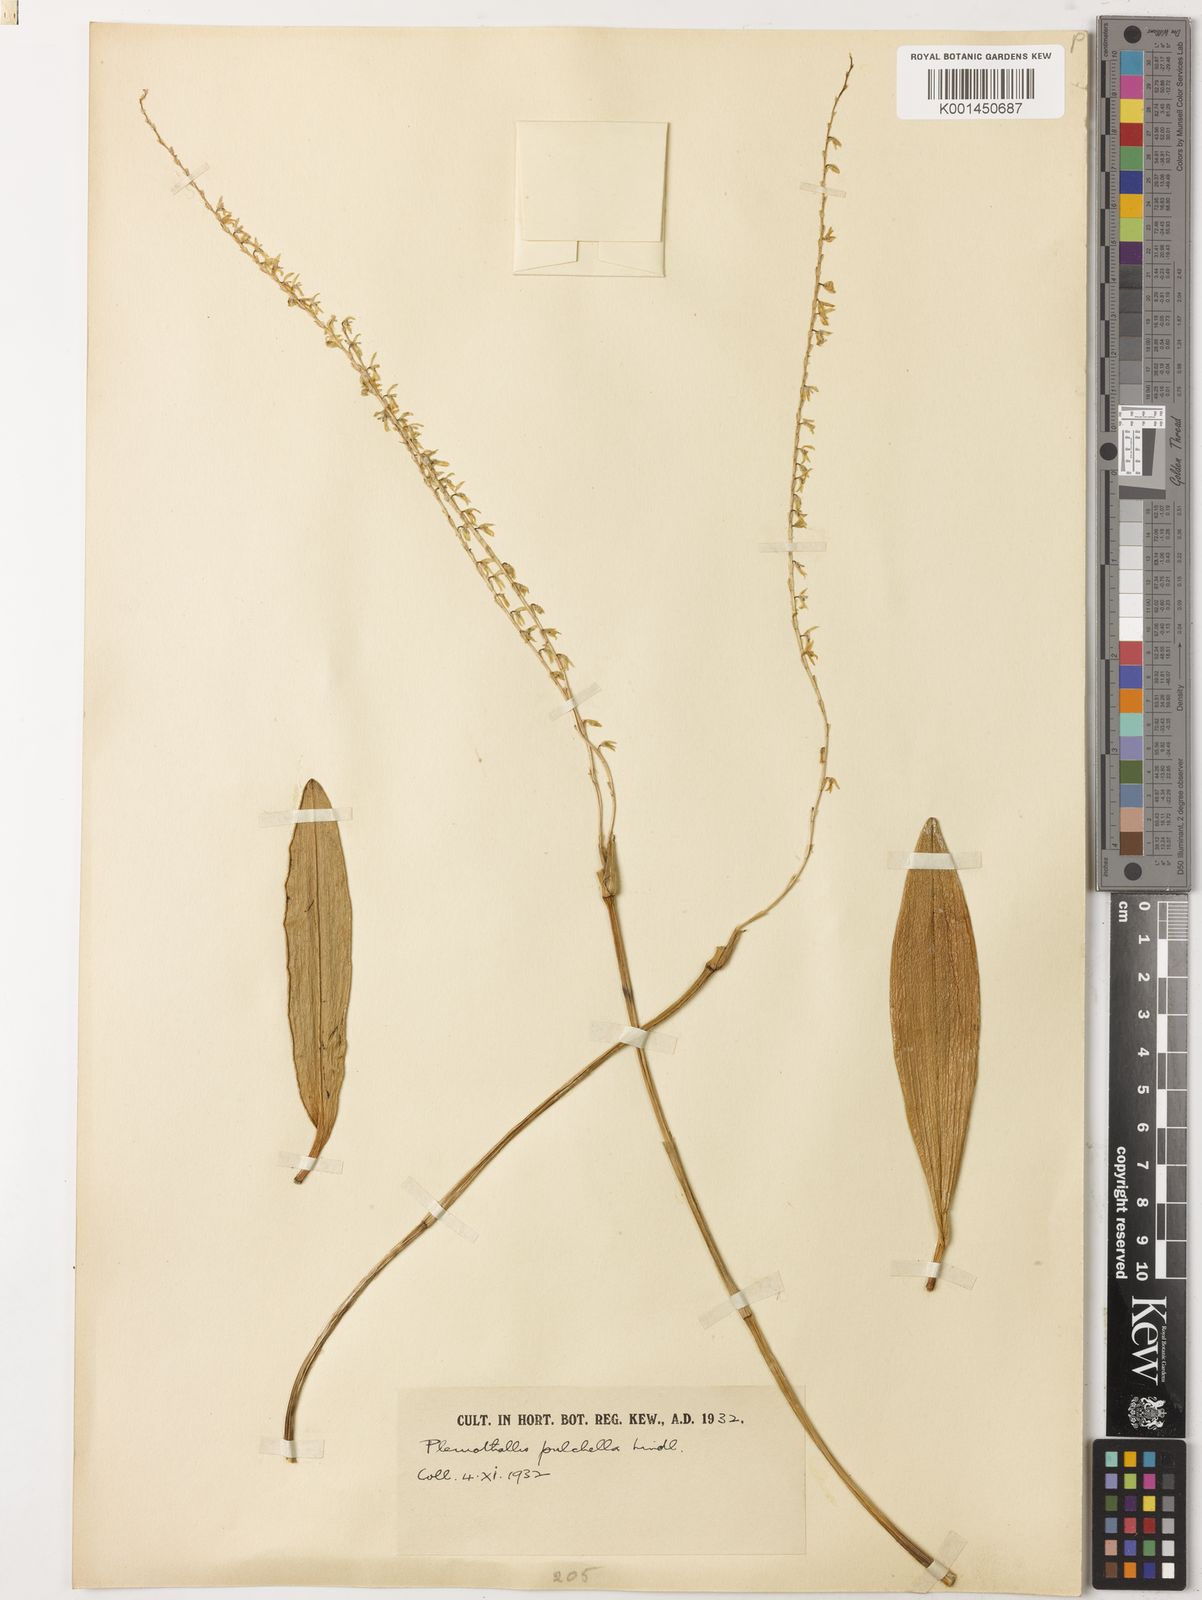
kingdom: Plantae
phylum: Tracheophyta
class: Liliopsida
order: Asparagales
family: Orchidaceae
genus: Stelis
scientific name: Stelis pulchella
